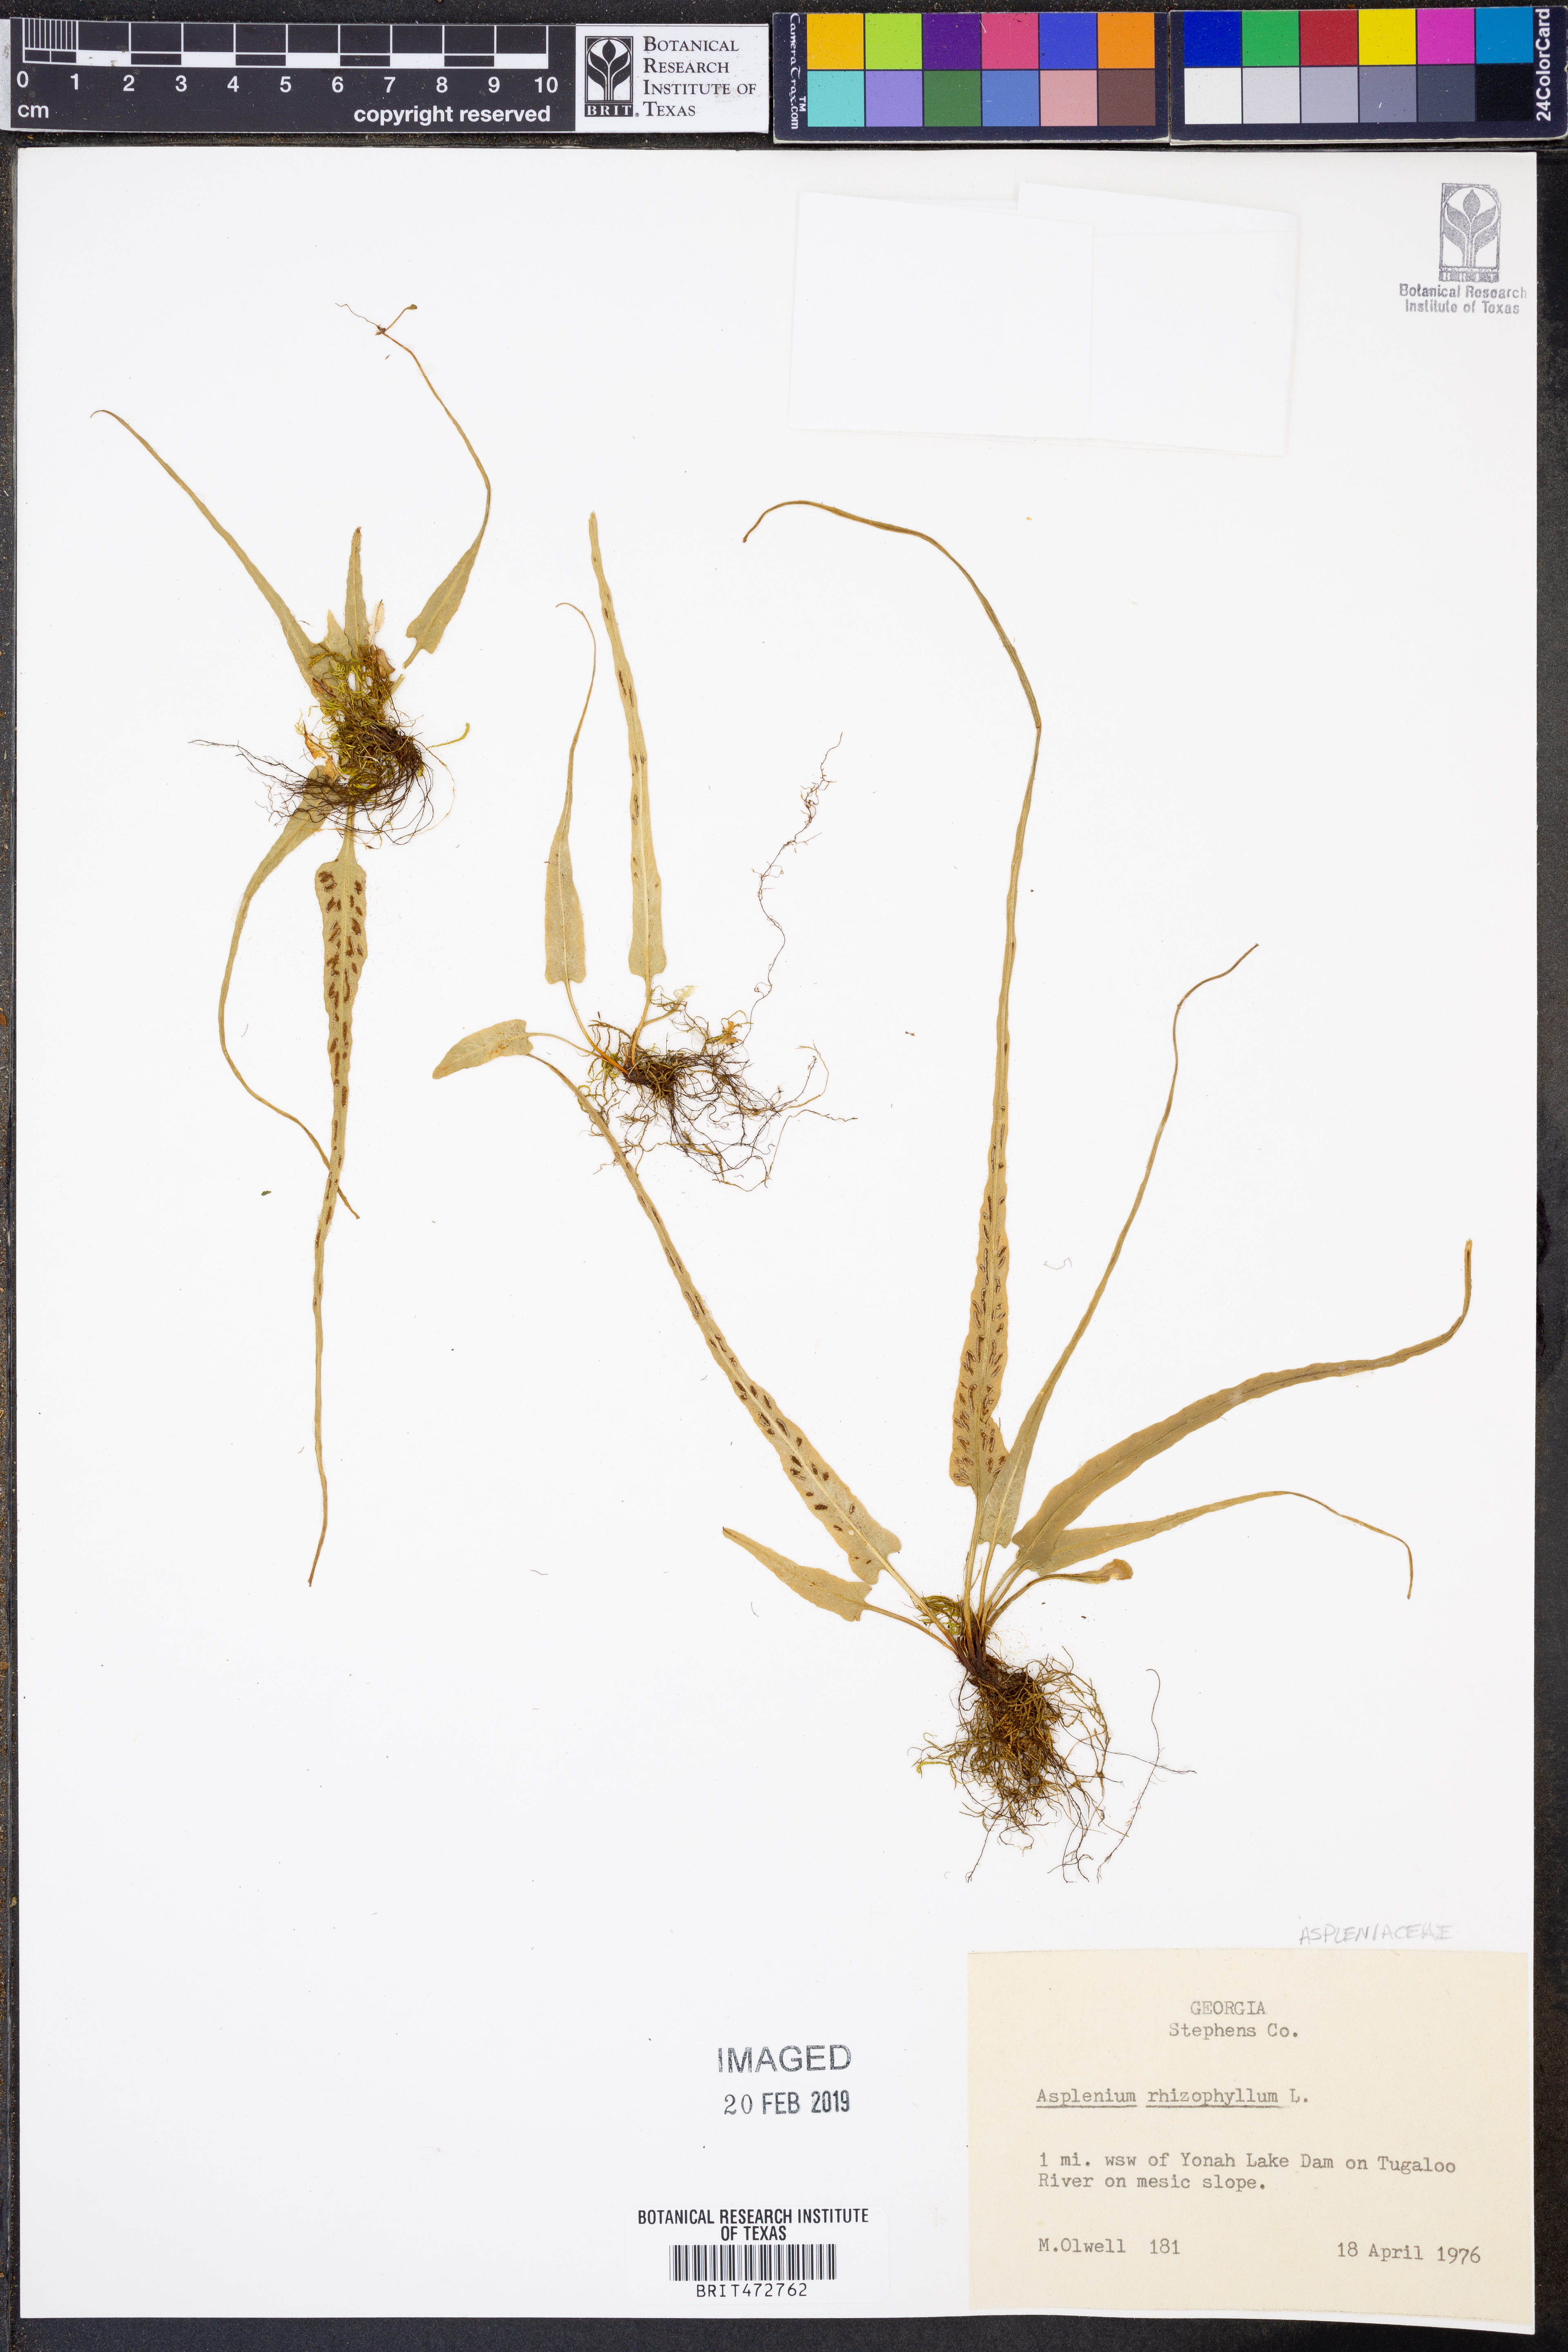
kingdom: Plantae
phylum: Tracheophyta
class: Polypodiopsida
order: Polypodiales
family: Aspleniaceae
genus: Asplenium
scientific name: Asplenium rhizophyllum
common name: Walking fern
